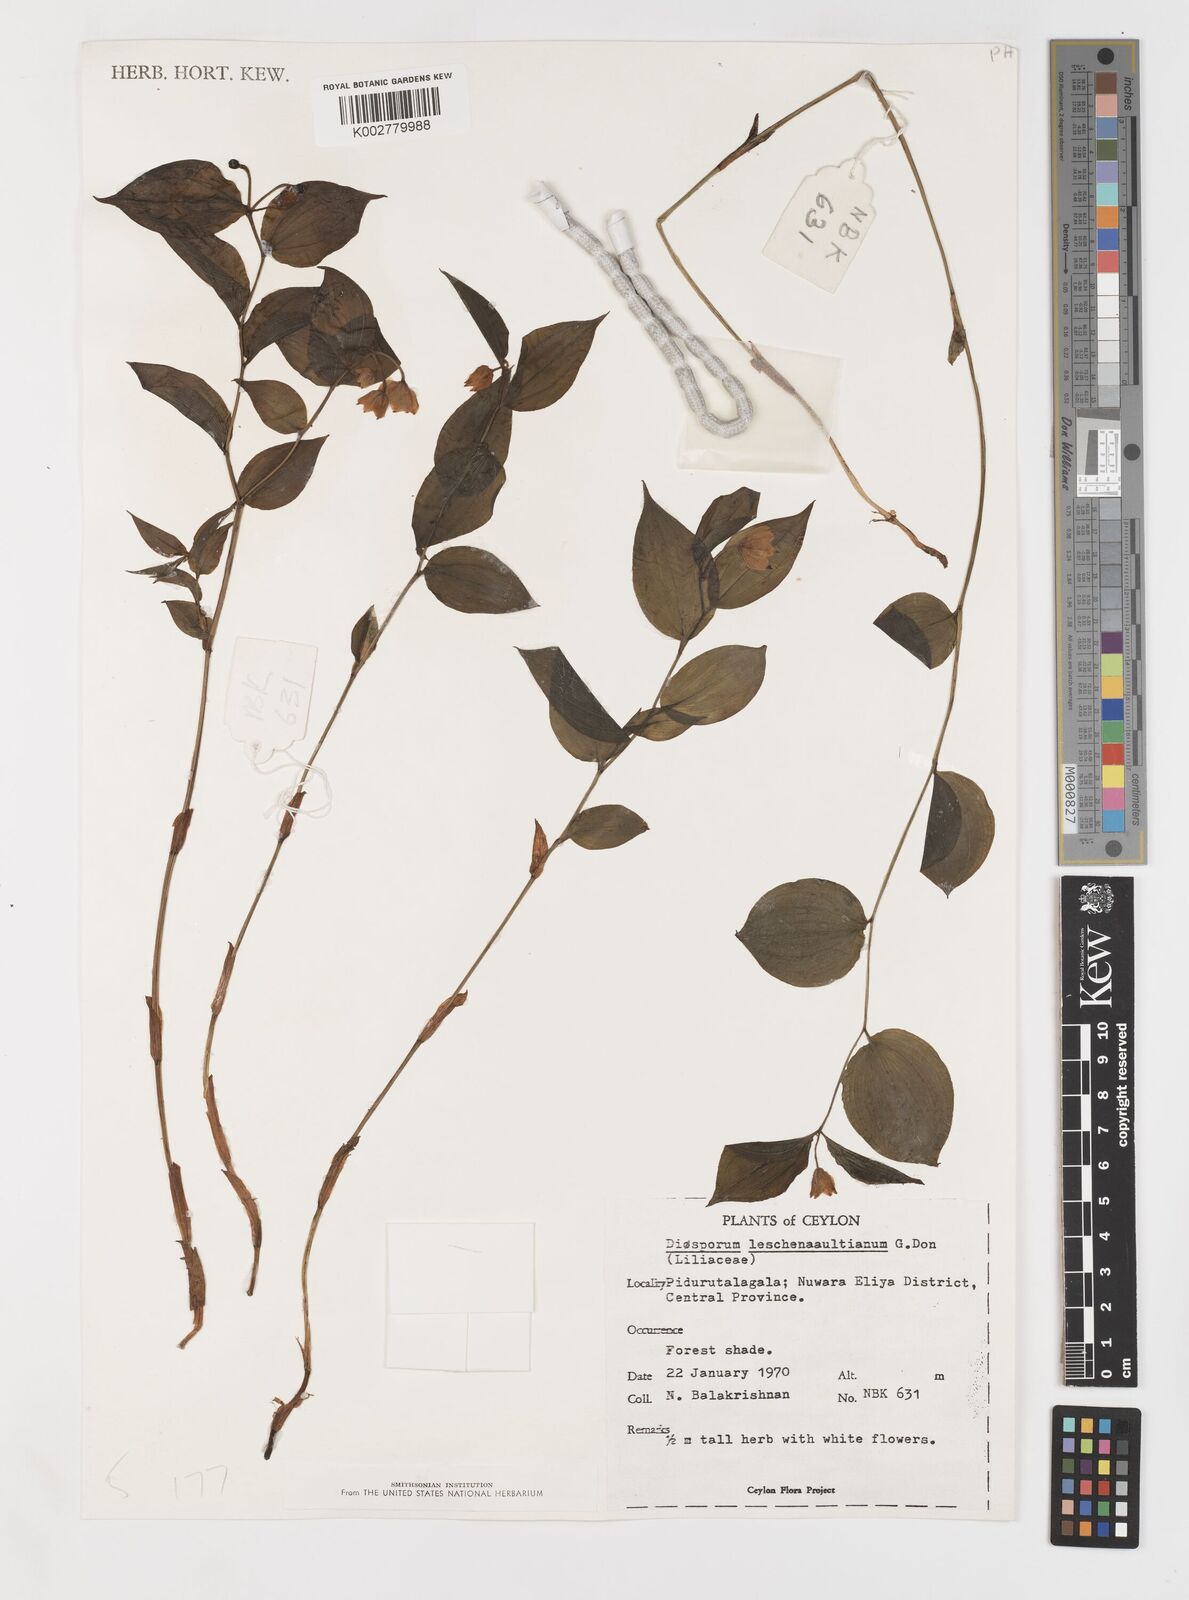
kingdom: Plantae
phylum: Tracheophyta
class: Liliopsida
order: Liliales
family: Colchicaceae
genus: Disporum
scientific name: Disporum cantoniense
